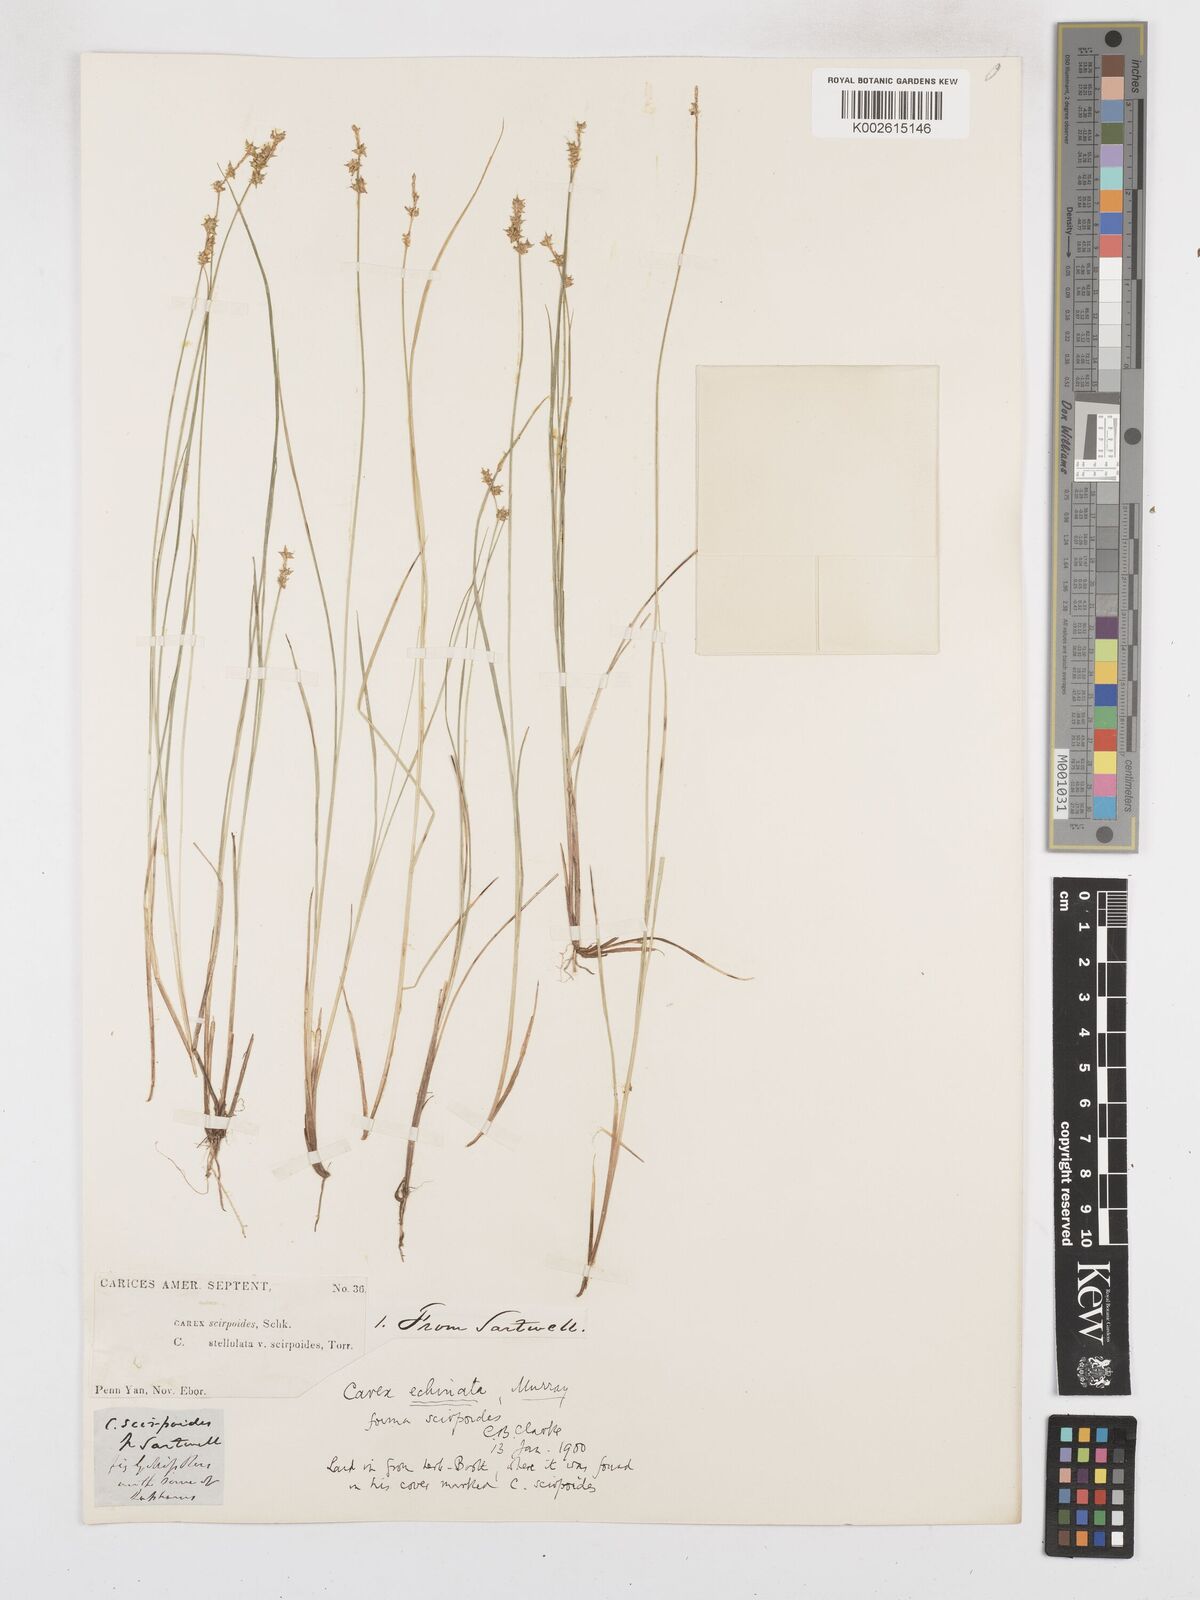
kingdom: Plantae
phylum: Tracheophyta
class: Liliopsida
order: Poales
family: Cyperaceae
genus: Carex
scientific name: Carex echinata
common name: Star sedge
